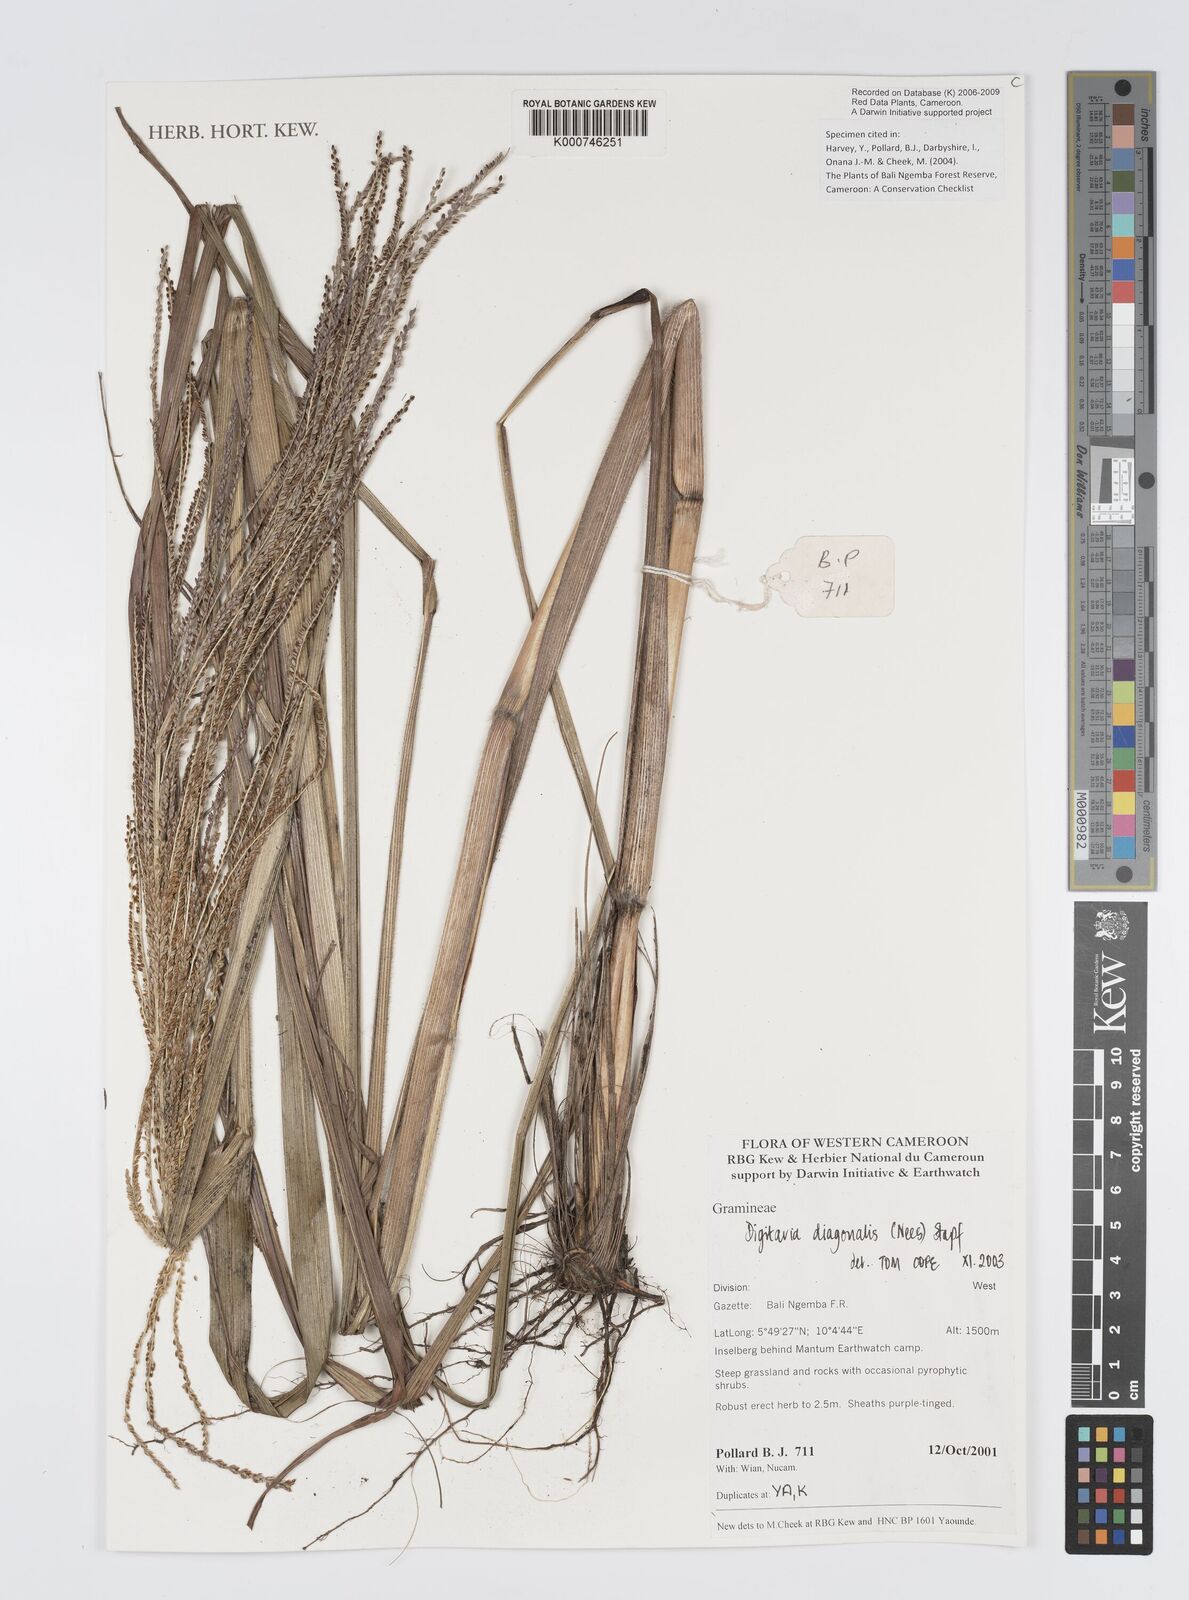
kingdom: Plantae
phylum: Tracheophyta
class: Liliopsida
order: Poales
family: Poaceae
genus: Digitaria
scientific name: Digitaria diagonalis
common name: Brown-seed finger grass
